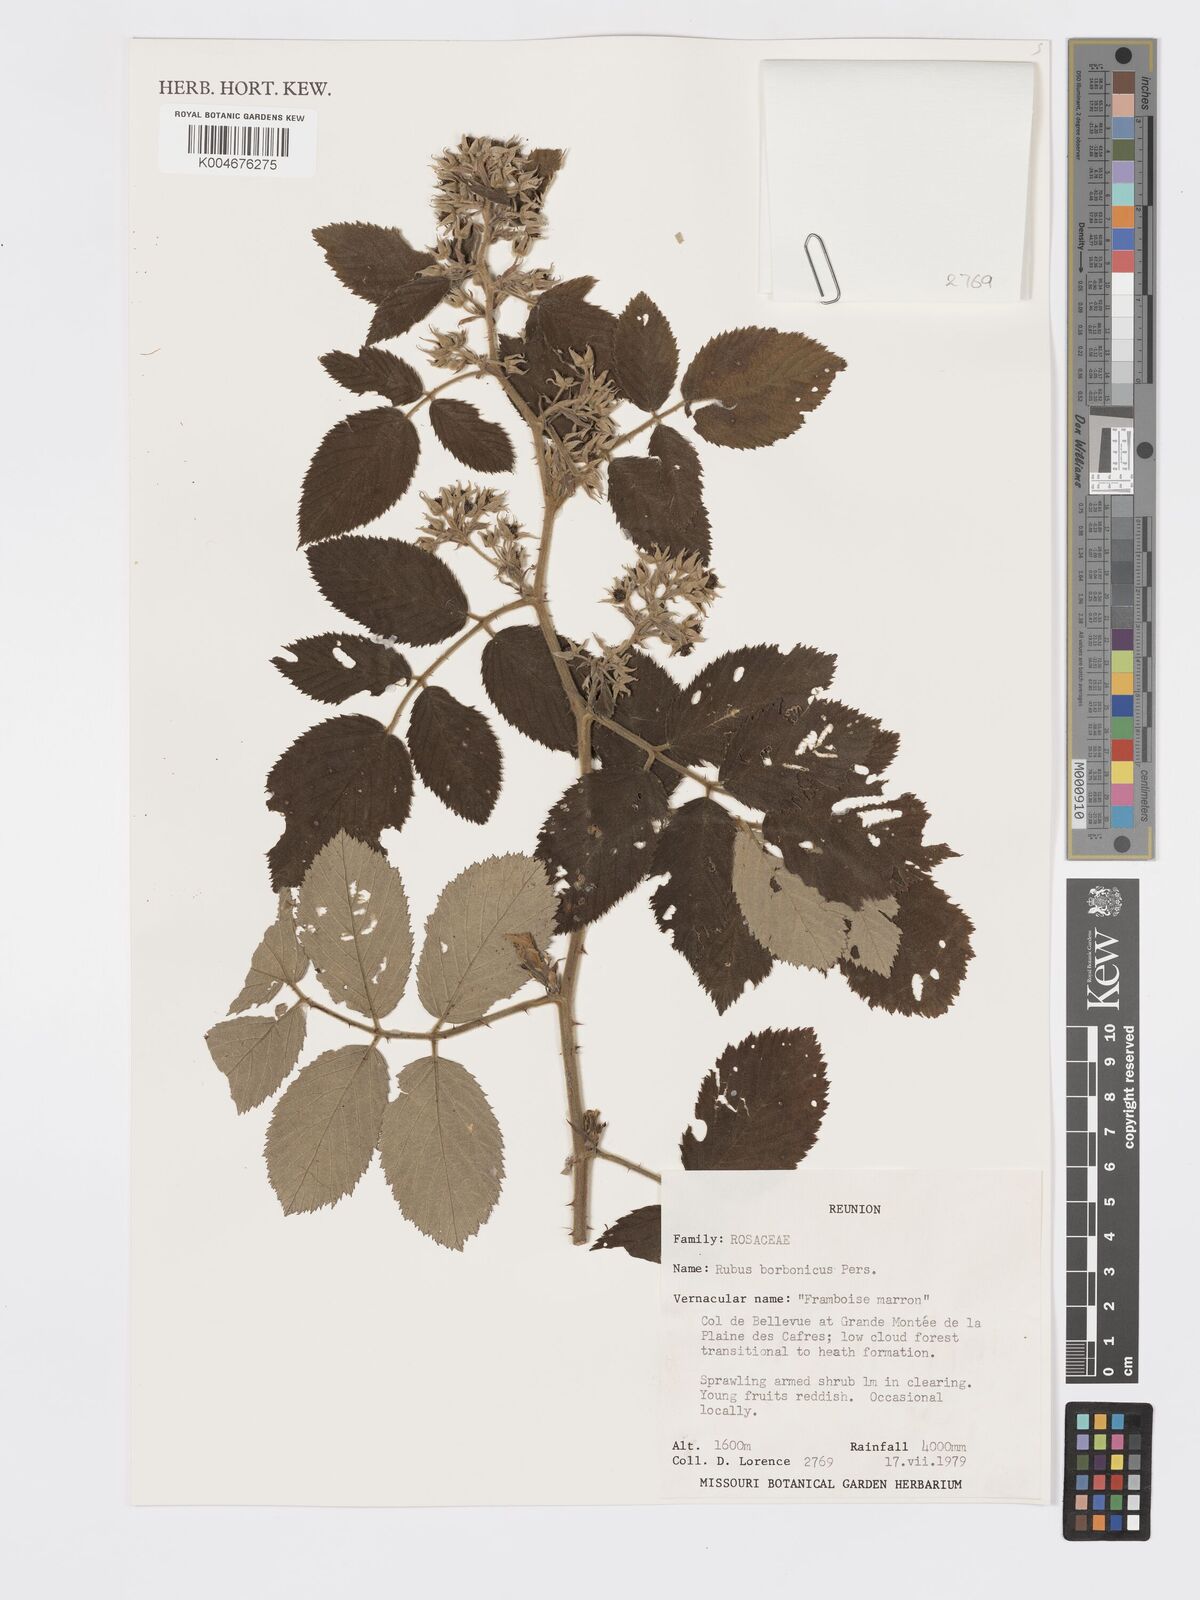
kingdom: Plantae
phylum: Tracheophyta
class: Magnoliopsida
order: Rosales
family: Rosaceae
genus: Rubus
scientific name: Rubus apetalus
